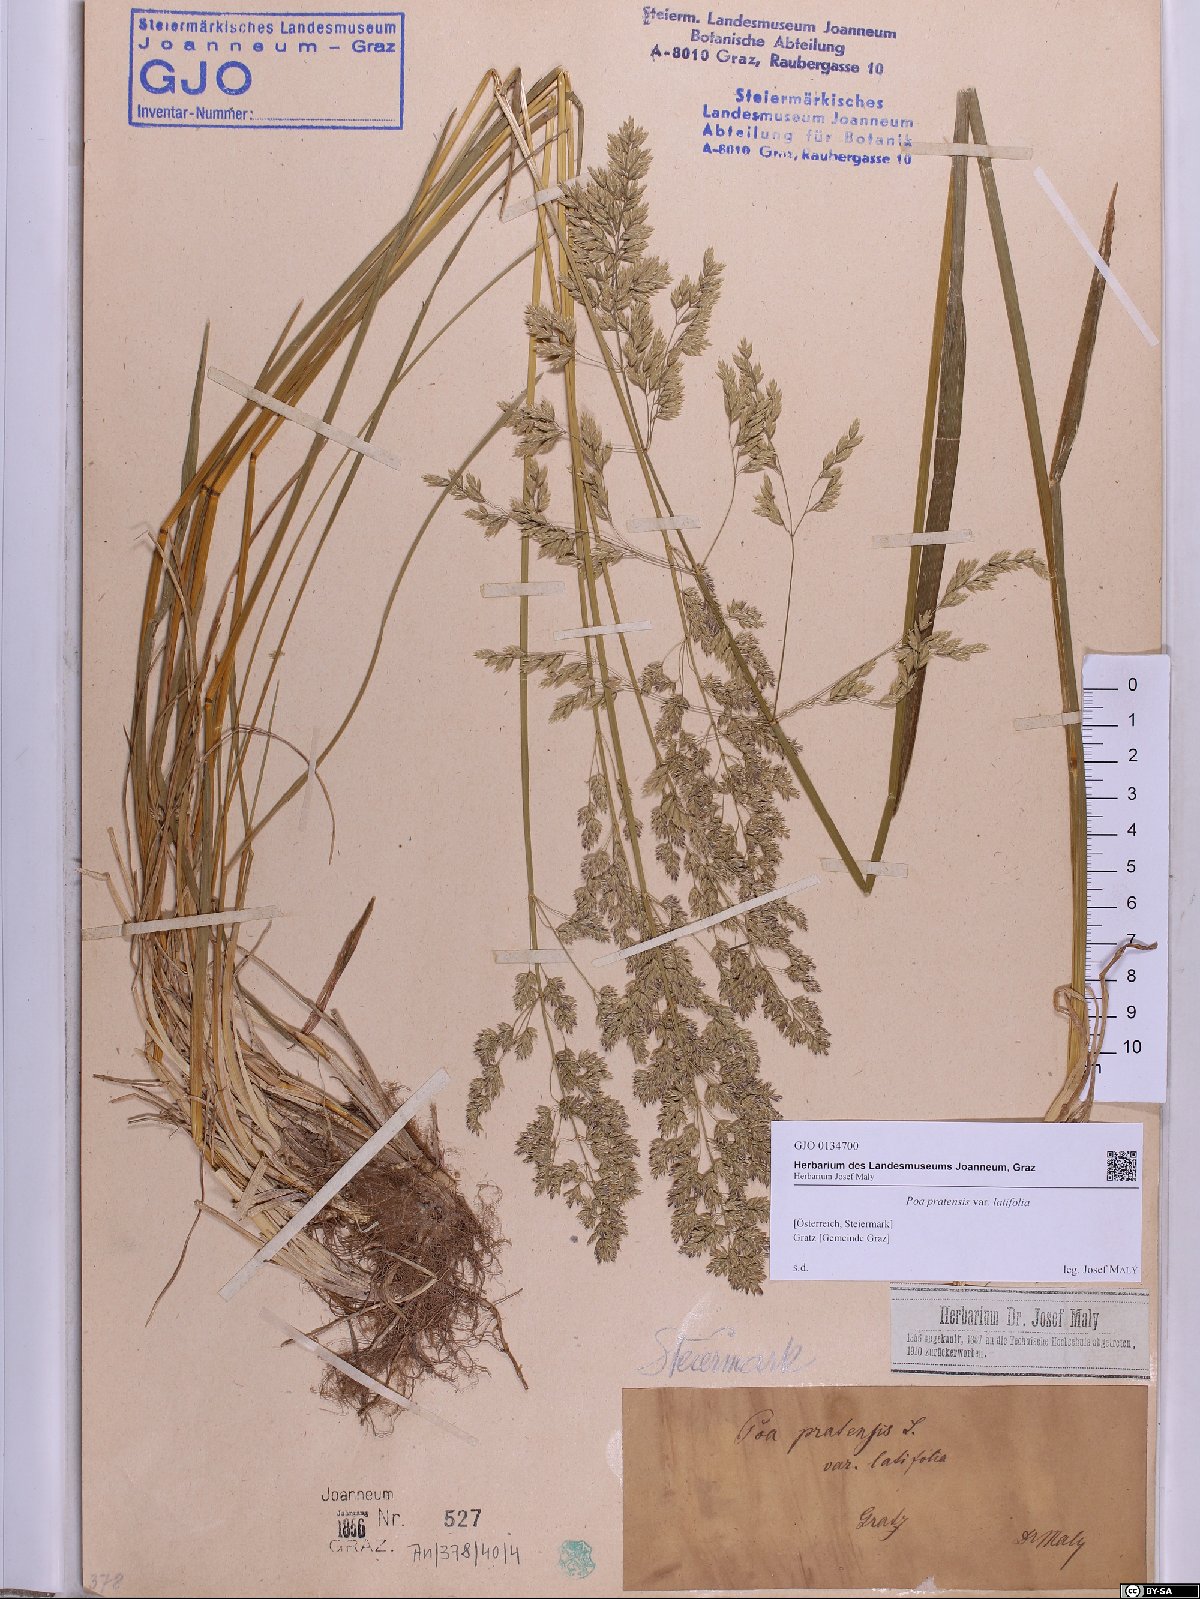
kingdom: Plantae
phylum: Tracheophyta
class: Liliopsida
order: Poales
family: Poaceae
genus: Poa
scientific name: Poa humilis
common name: Spreading meadow-grass
